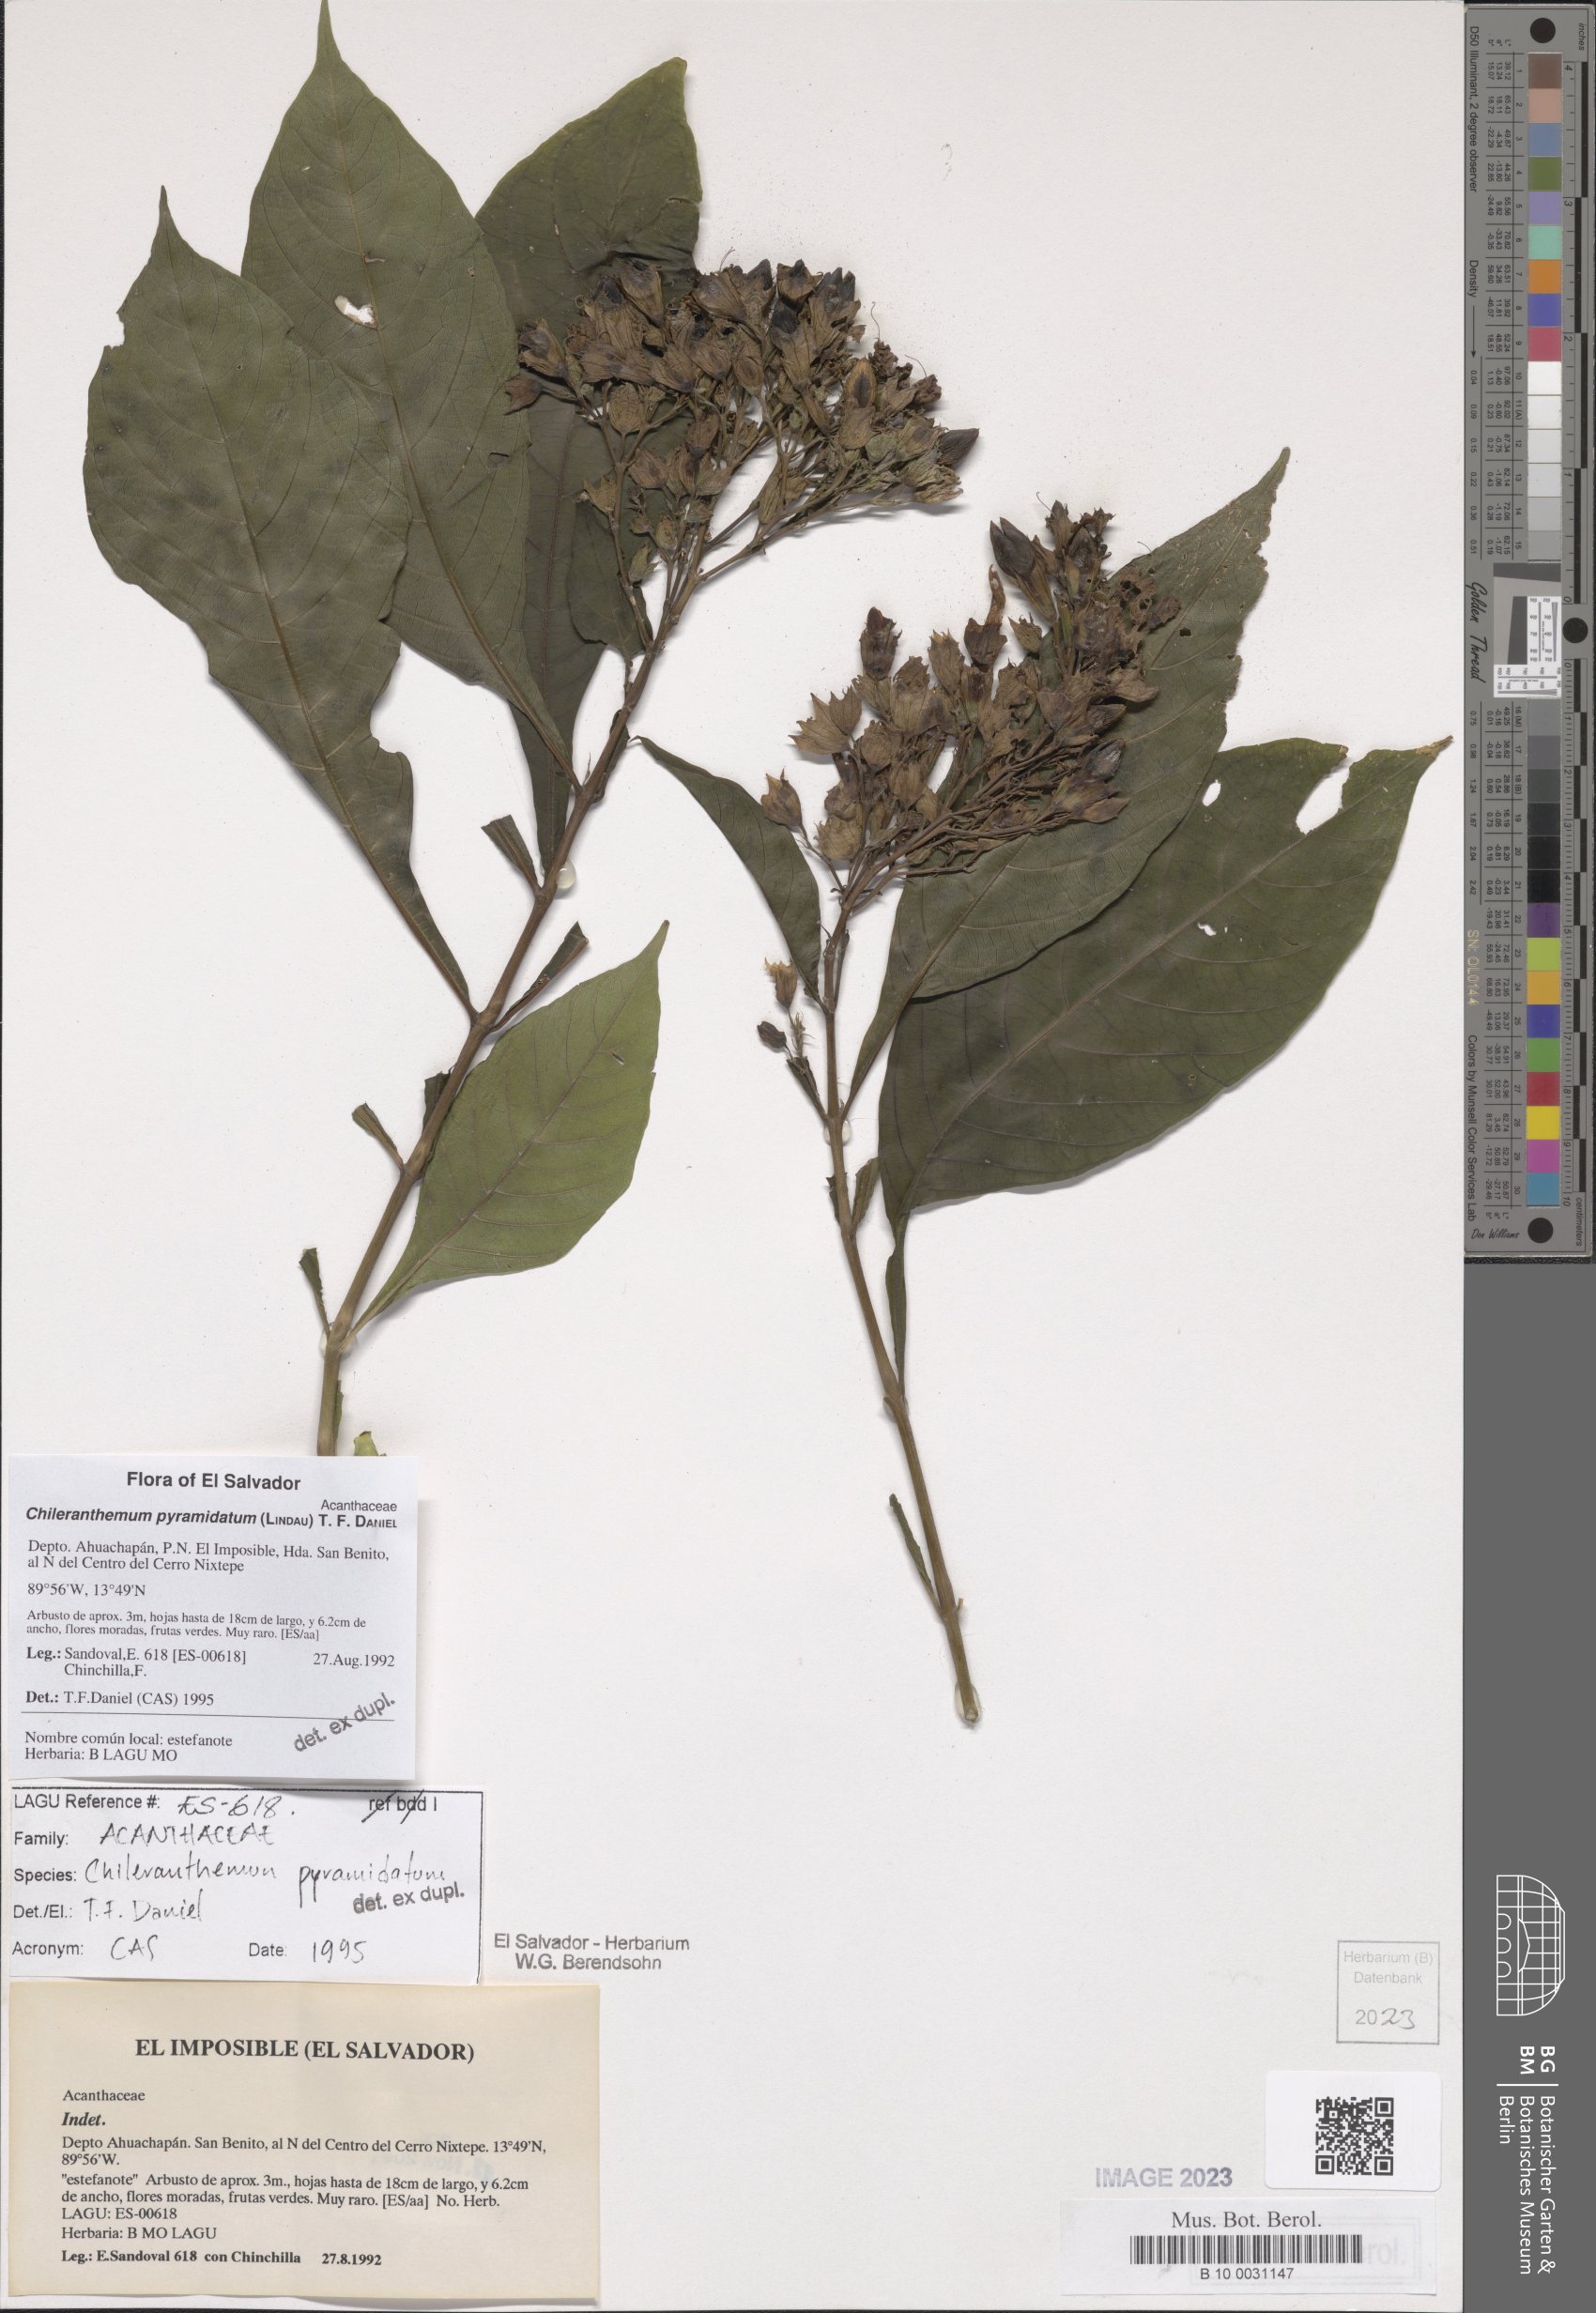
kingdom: Plantae
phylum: Tracheophyta
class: Magnoliopsida
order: Lamiales
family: Acanthaceae
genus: Chileranthemum
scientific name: Chileranthemum pyramidatum
